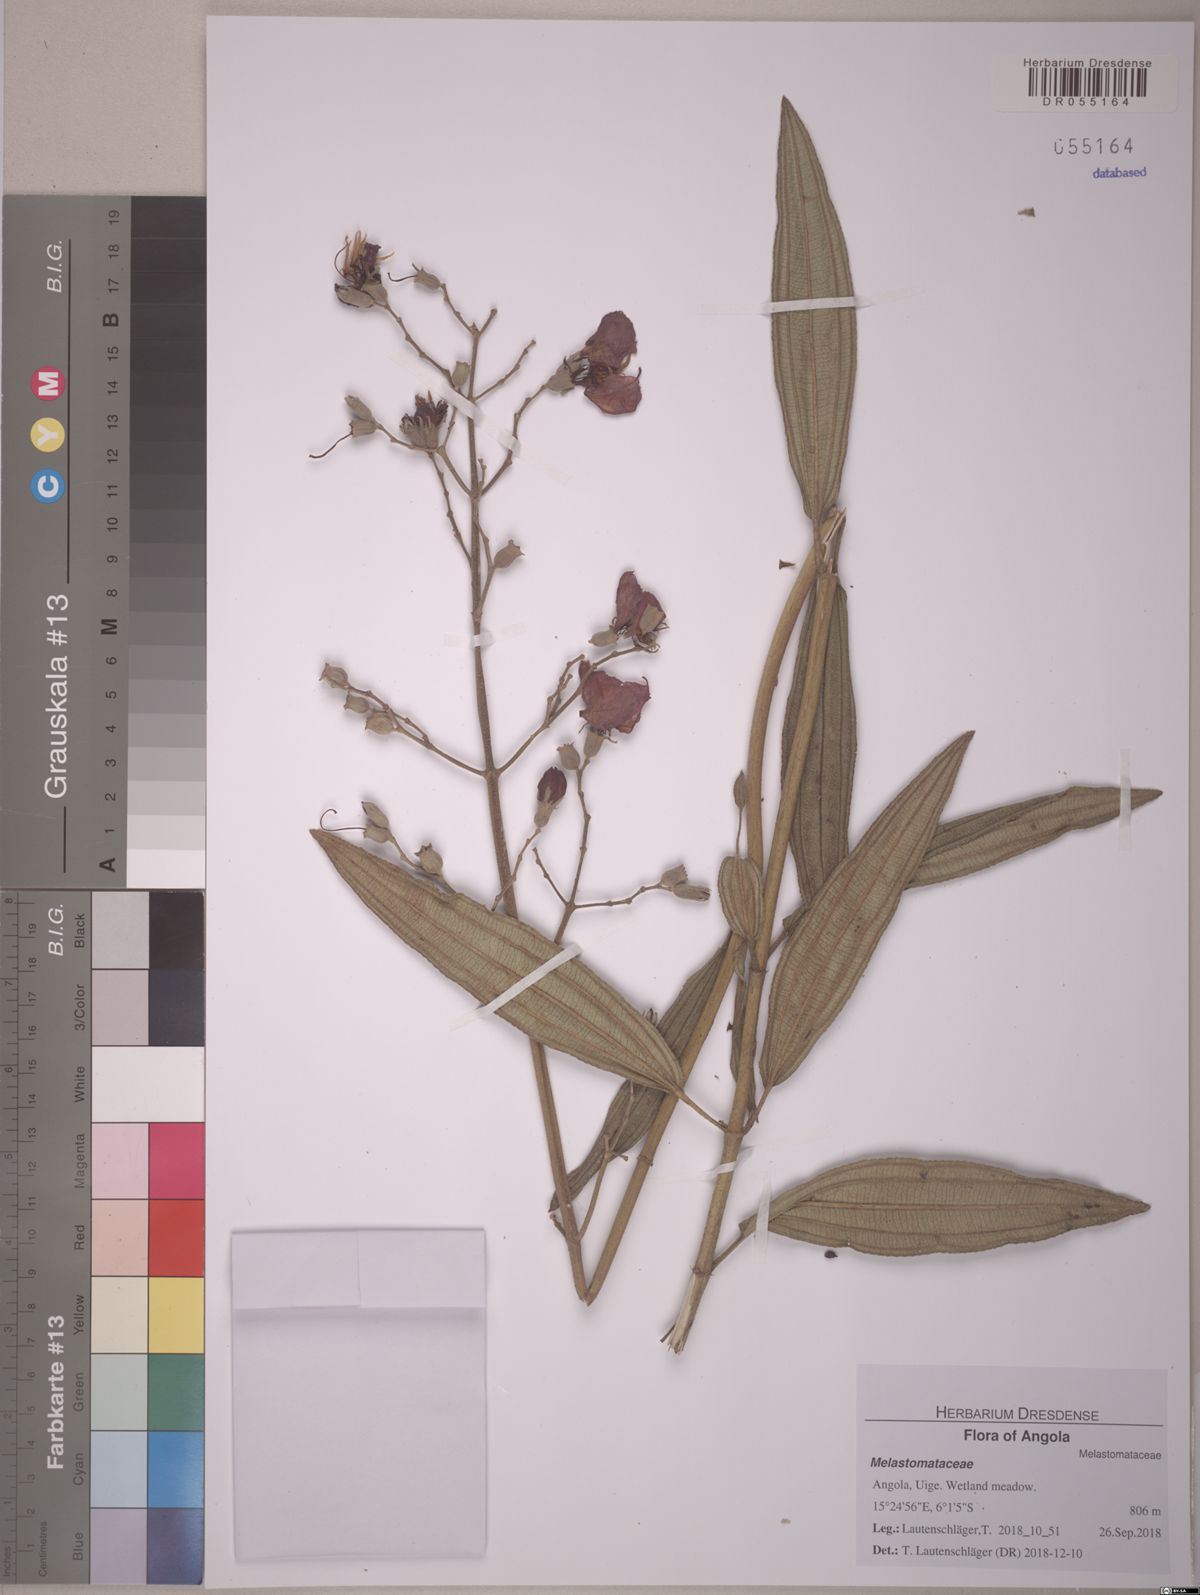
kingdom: Plantae
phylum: Tracheophyta
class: Magnoliopsida
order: Myrtales
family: Melastomataceae
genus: Rosettea
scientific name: Rosettea thollonii
